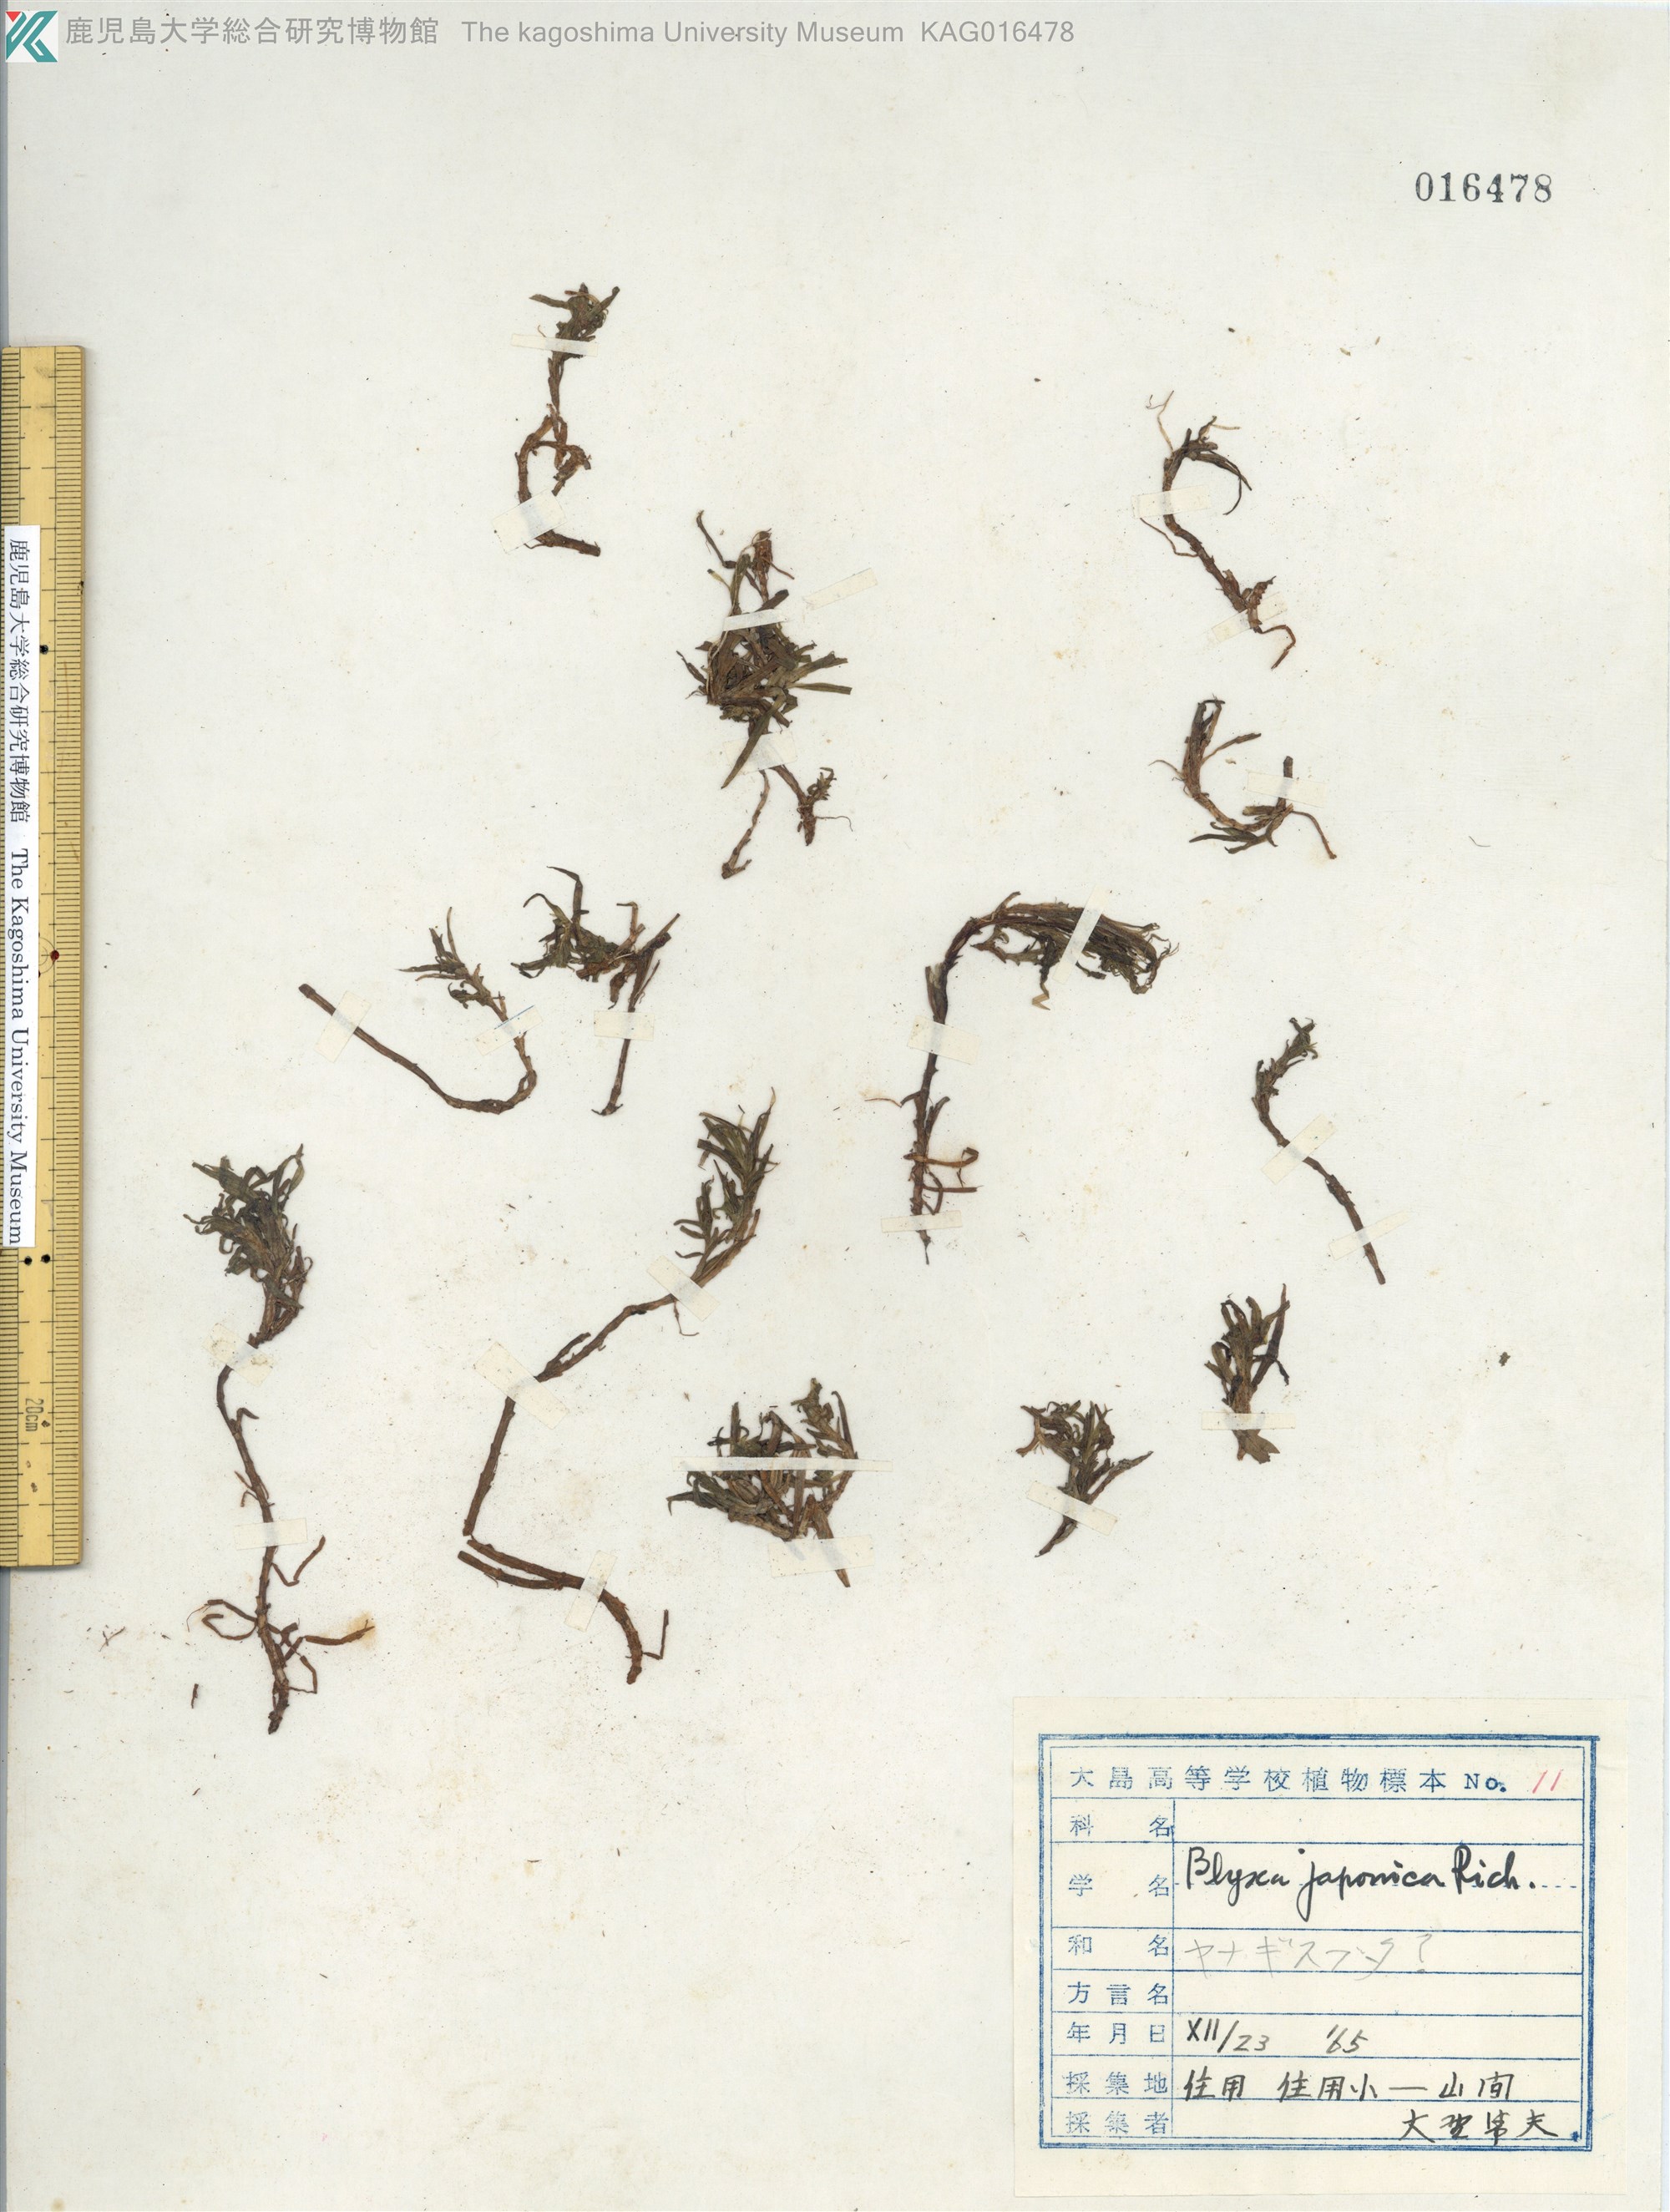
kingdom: Plantae
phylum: Tracheophyta
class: Liliopsida
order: Alismatales
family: Hydrocharitaceae
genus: Blyxa
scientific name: Blyxa japonica
